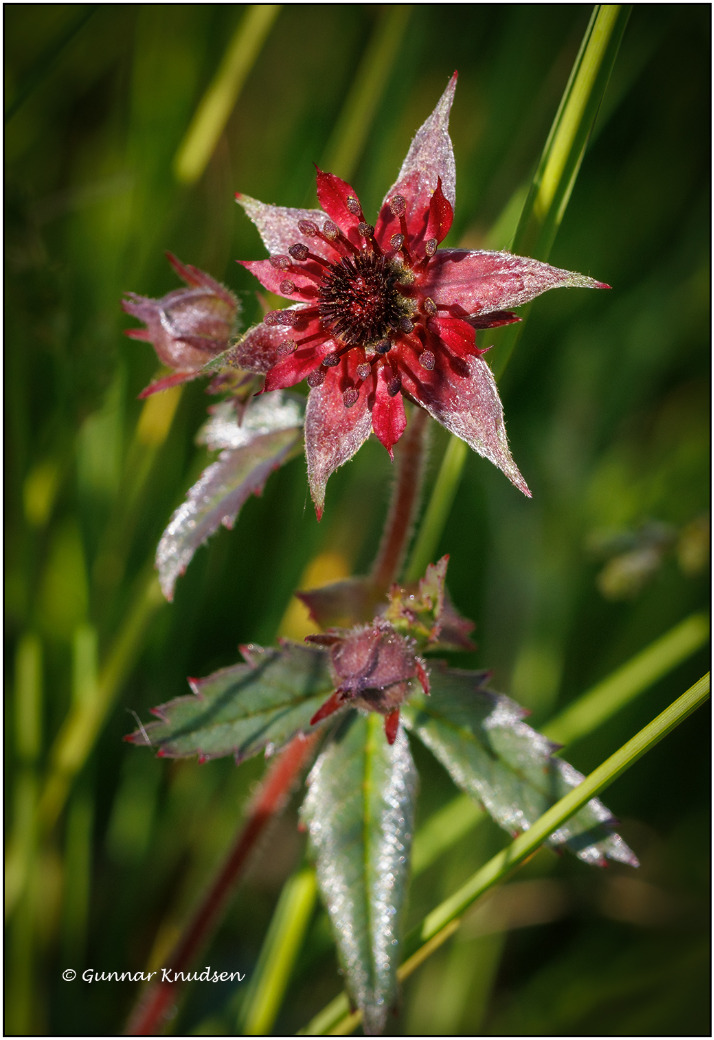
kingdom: Plantae
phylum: Tracheophyta
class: Magnoliopsida
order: Rosales
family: Rosaceae
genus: Comarum
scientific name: Comarum palustre
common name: Kragefod
